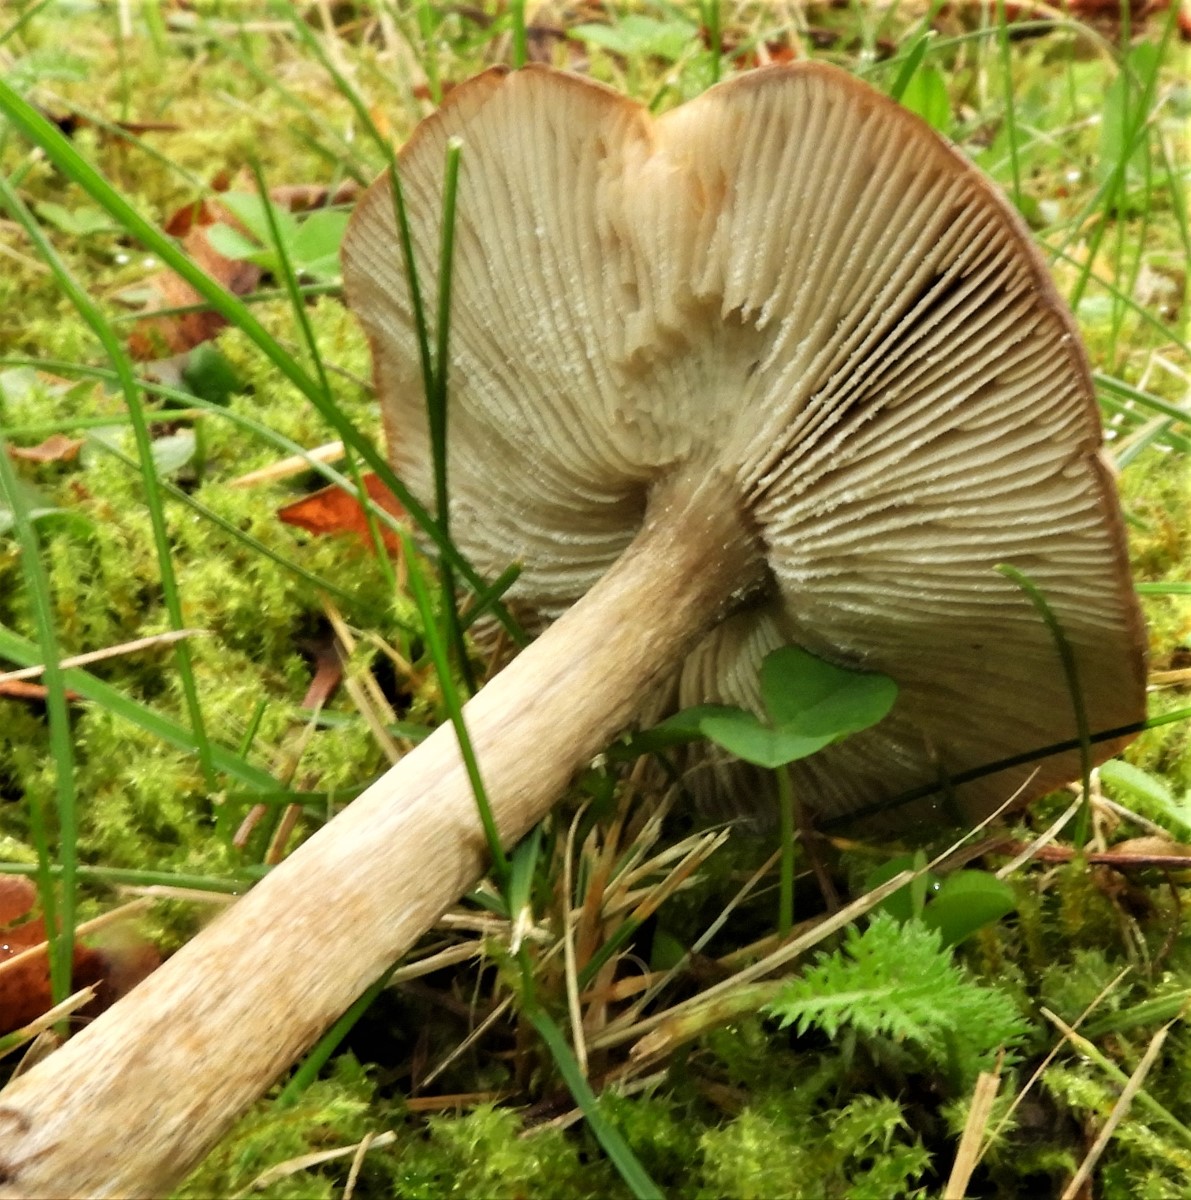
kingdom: Fungi
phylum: Basidiomycota
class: Agaricomycetes
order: Agaricales
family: Tricholomataceae
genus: Melanoleuca
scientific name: Melanoleuca
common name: munkehat
